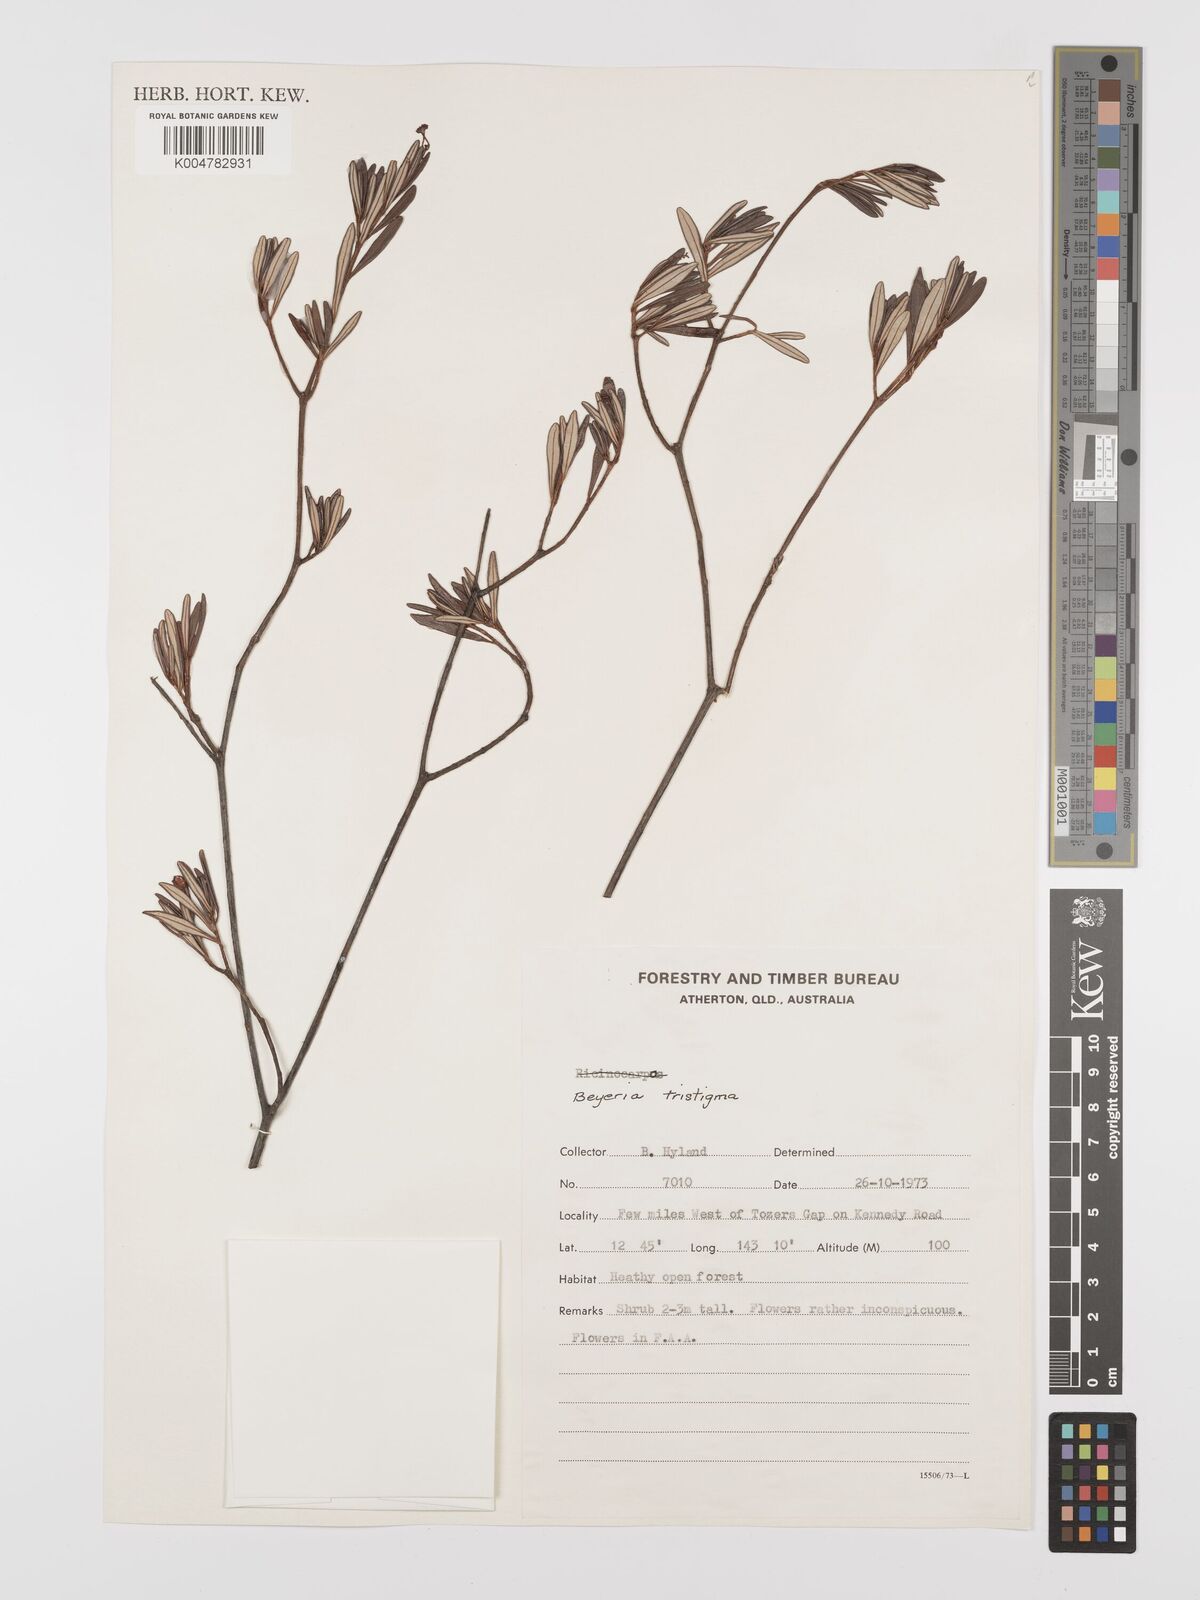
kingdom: Plantae
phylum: Tracheophyta
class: Magnoliopsida
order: Malpighiales
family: Euphorbiaceae
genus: Shonia
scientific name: Shonia tristigma
